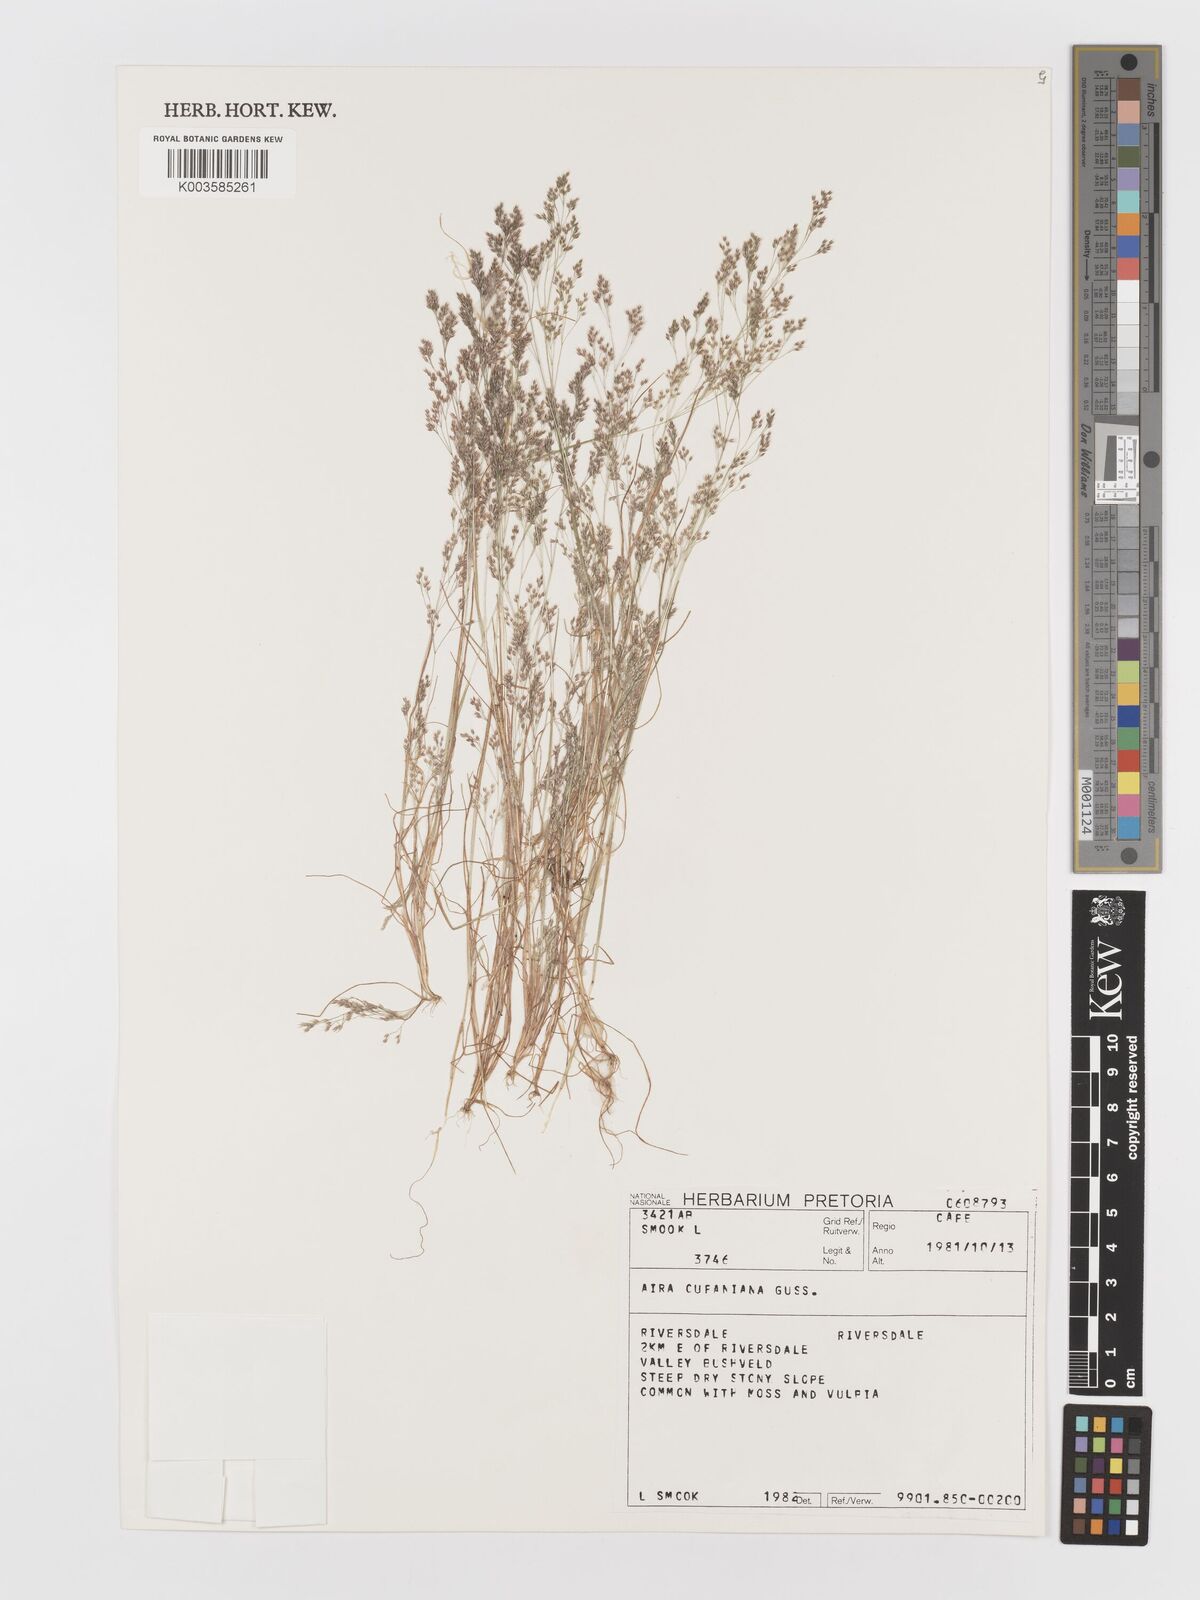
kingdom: Plantae
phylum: Tracheophyta
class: Liliopsida
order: Poales
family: Poaceae
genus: Aira
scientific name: Aira cupaniana
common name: Silver hairgrass
